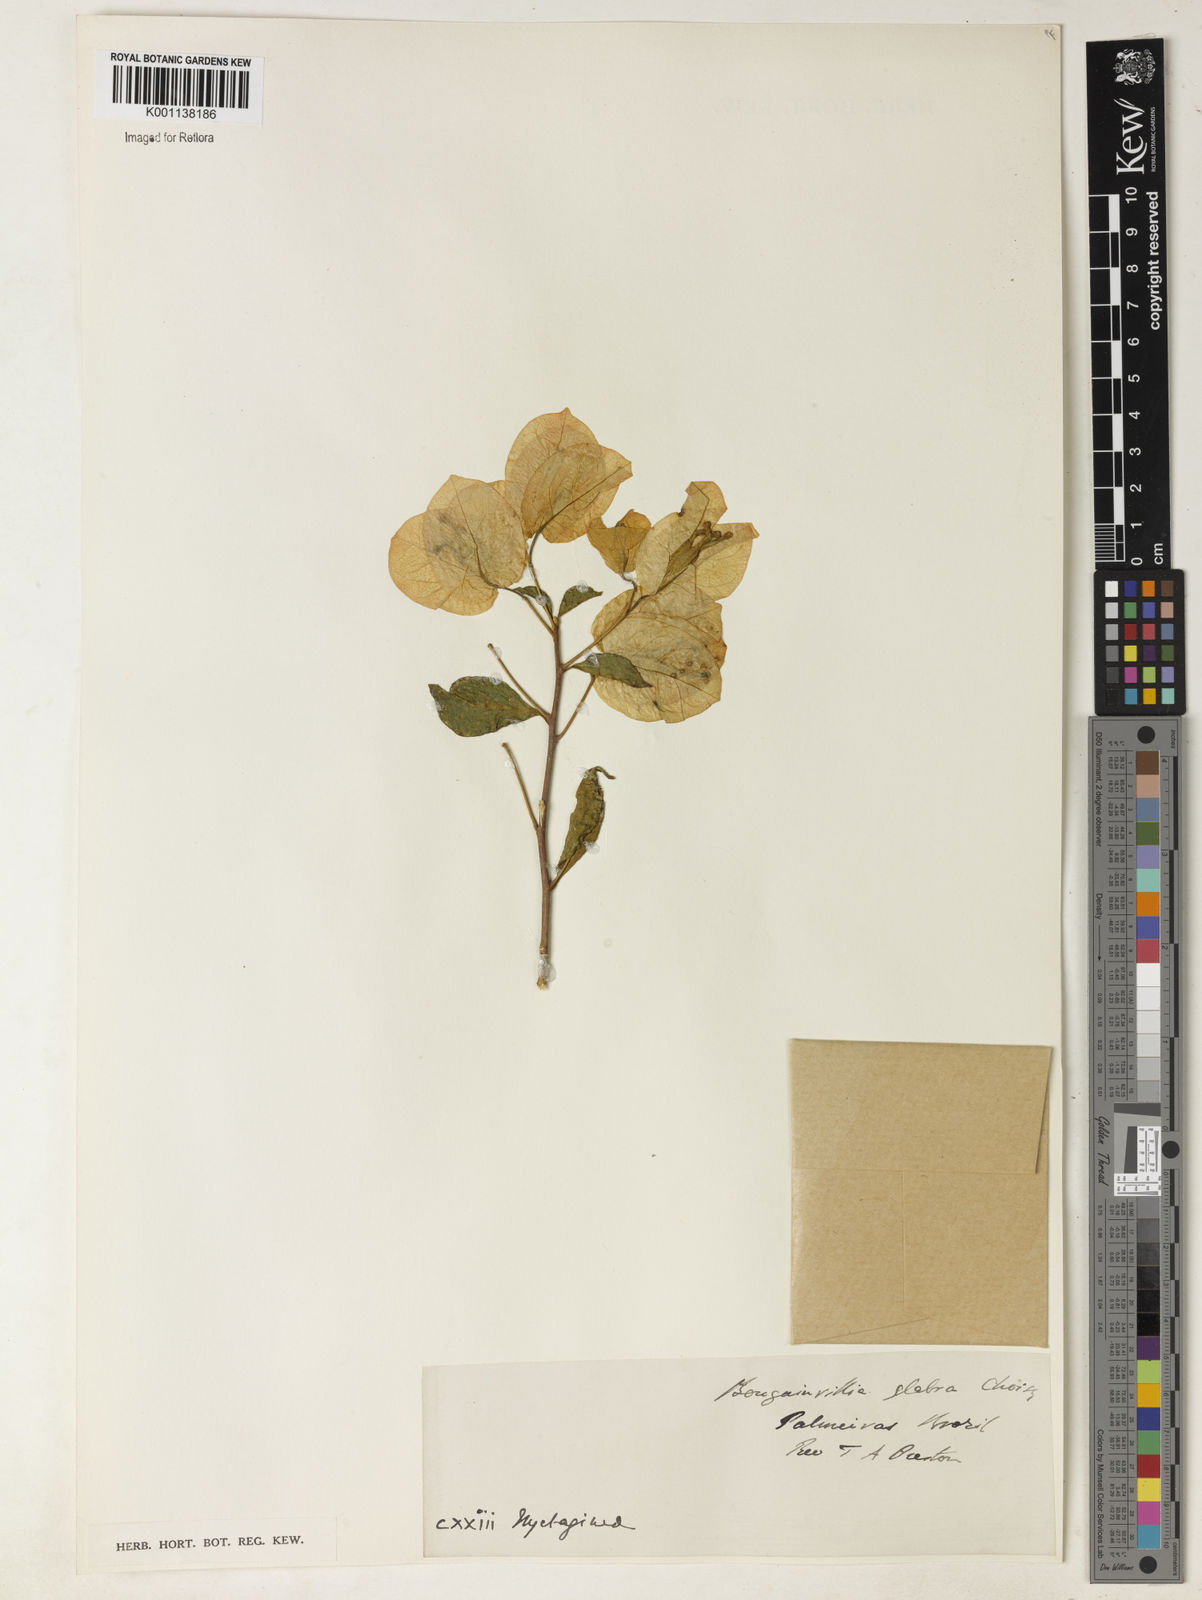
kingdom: Plantae
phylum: Tracheophyta
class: Magnoliopsida
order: Caryophyllales
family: Nyctaginaceae
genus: Bougainvillea
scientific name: Bougainvillea glabra
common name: Paperflower
